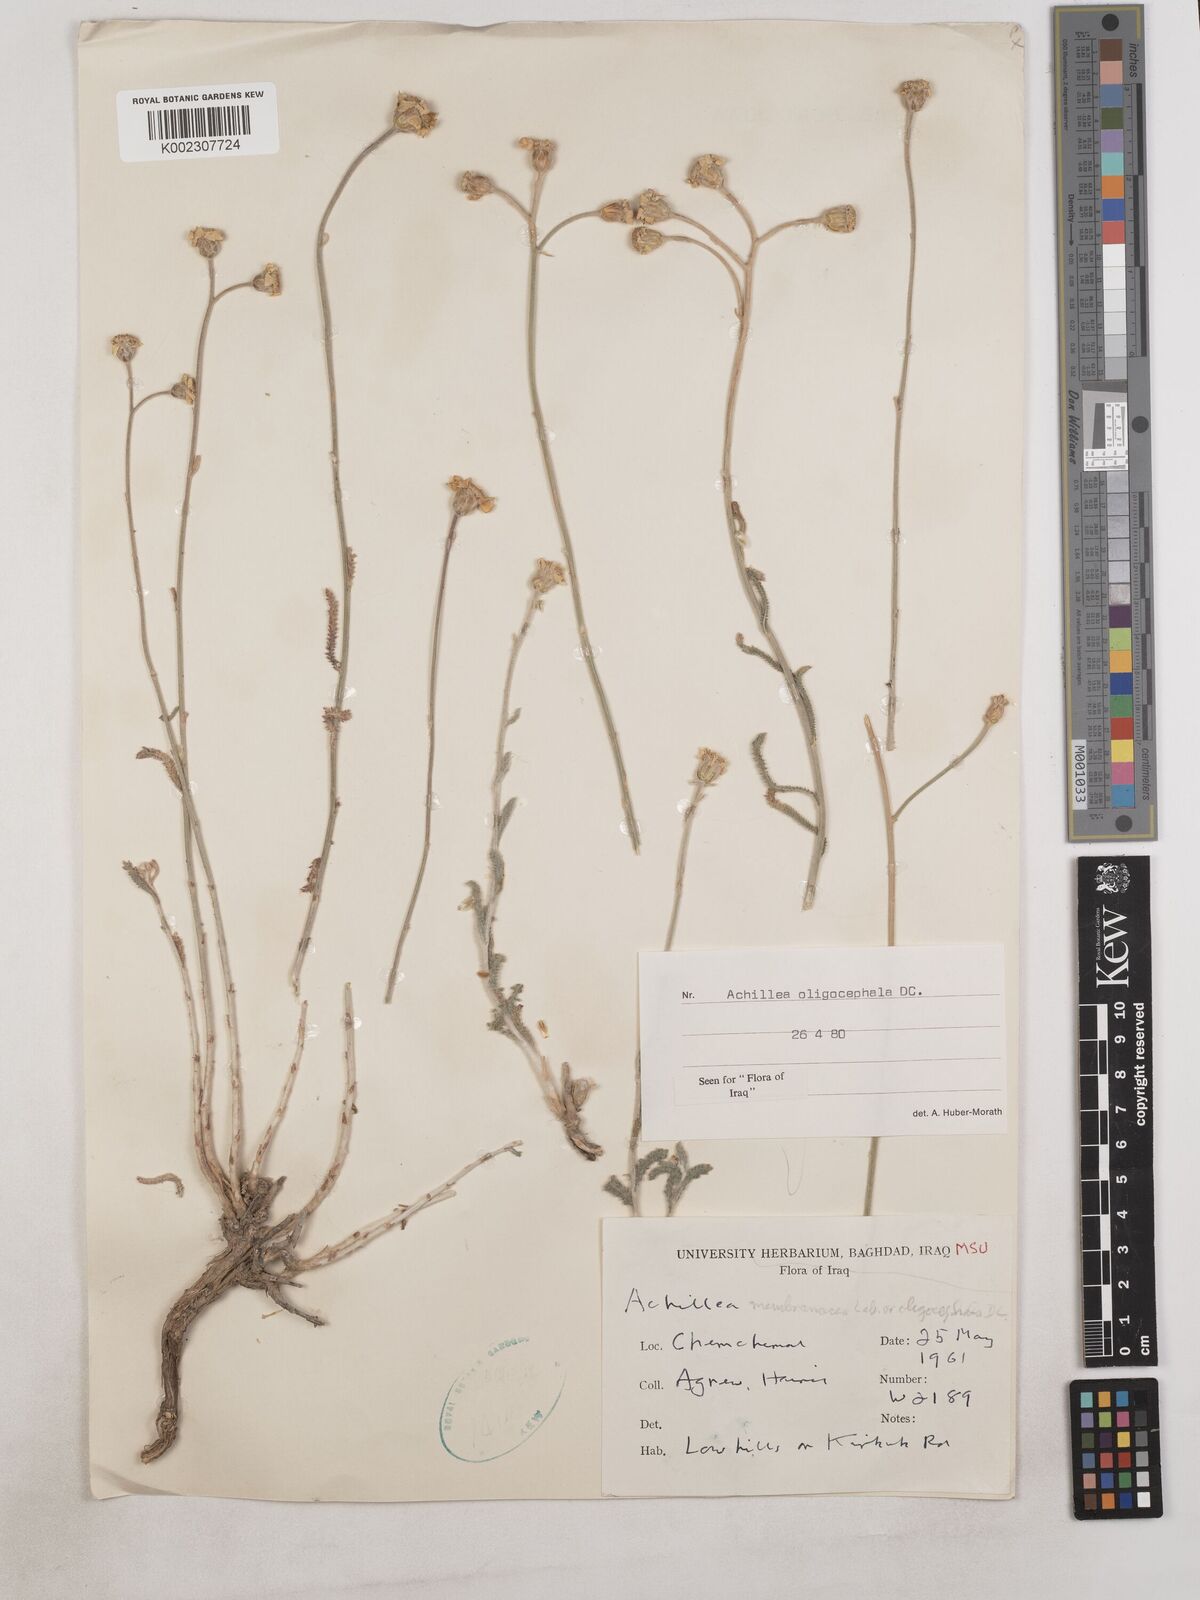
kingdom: Plantae
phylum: Tracheophyta
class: Magnoliopsida
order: Asterales
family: Asteraceae
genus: Achillea
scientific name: Achillea oligocephala
